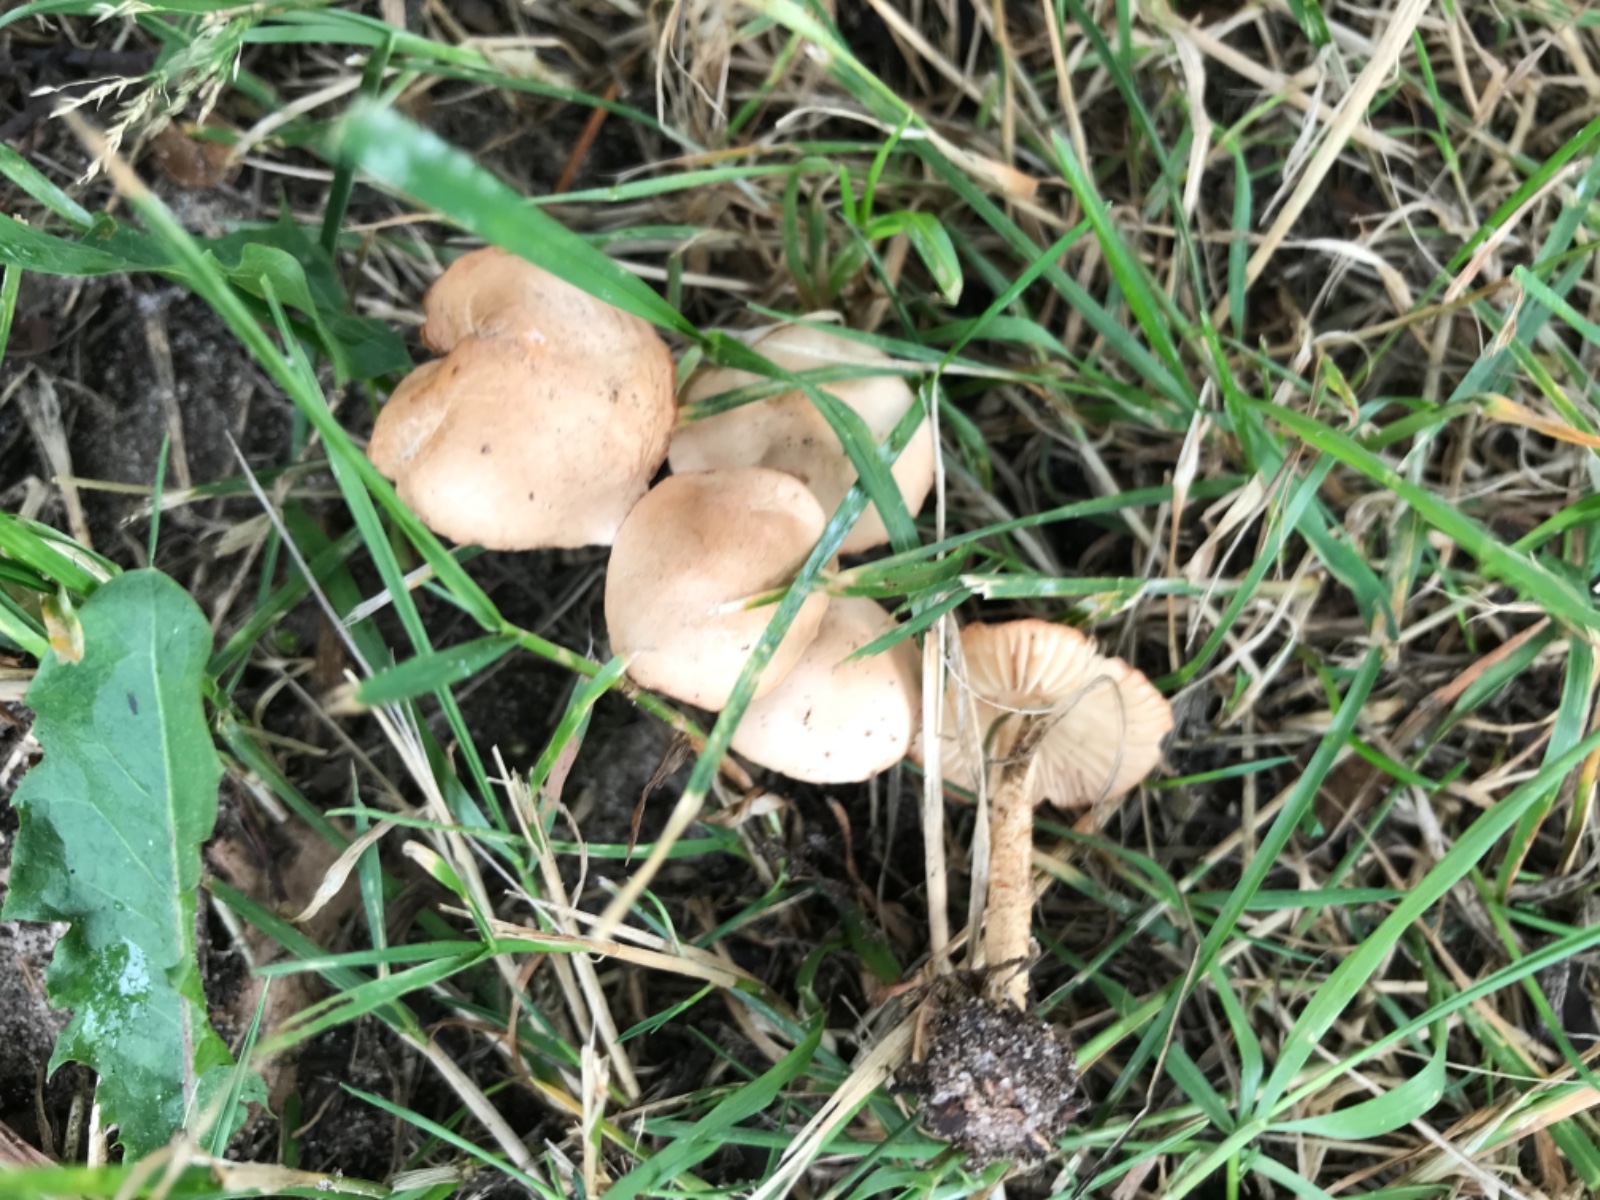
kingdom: Fungi
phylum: Basidiomycota
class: Agaricomycetes
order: Agaricales
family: Marasmiaceae
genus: Marasmius
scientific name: Marasmius oreades
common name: elledans-bruskhat
